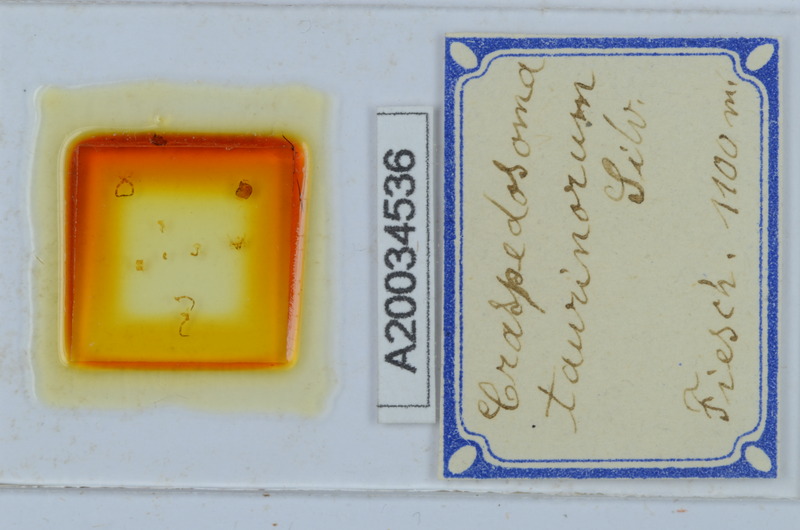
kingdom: Animalia
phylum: Arthropoda
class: Diplopoda
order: Chordeumatida
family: Craspedosomatidae
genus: Craspedosoma
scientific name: Craspedosoma taurinorum
